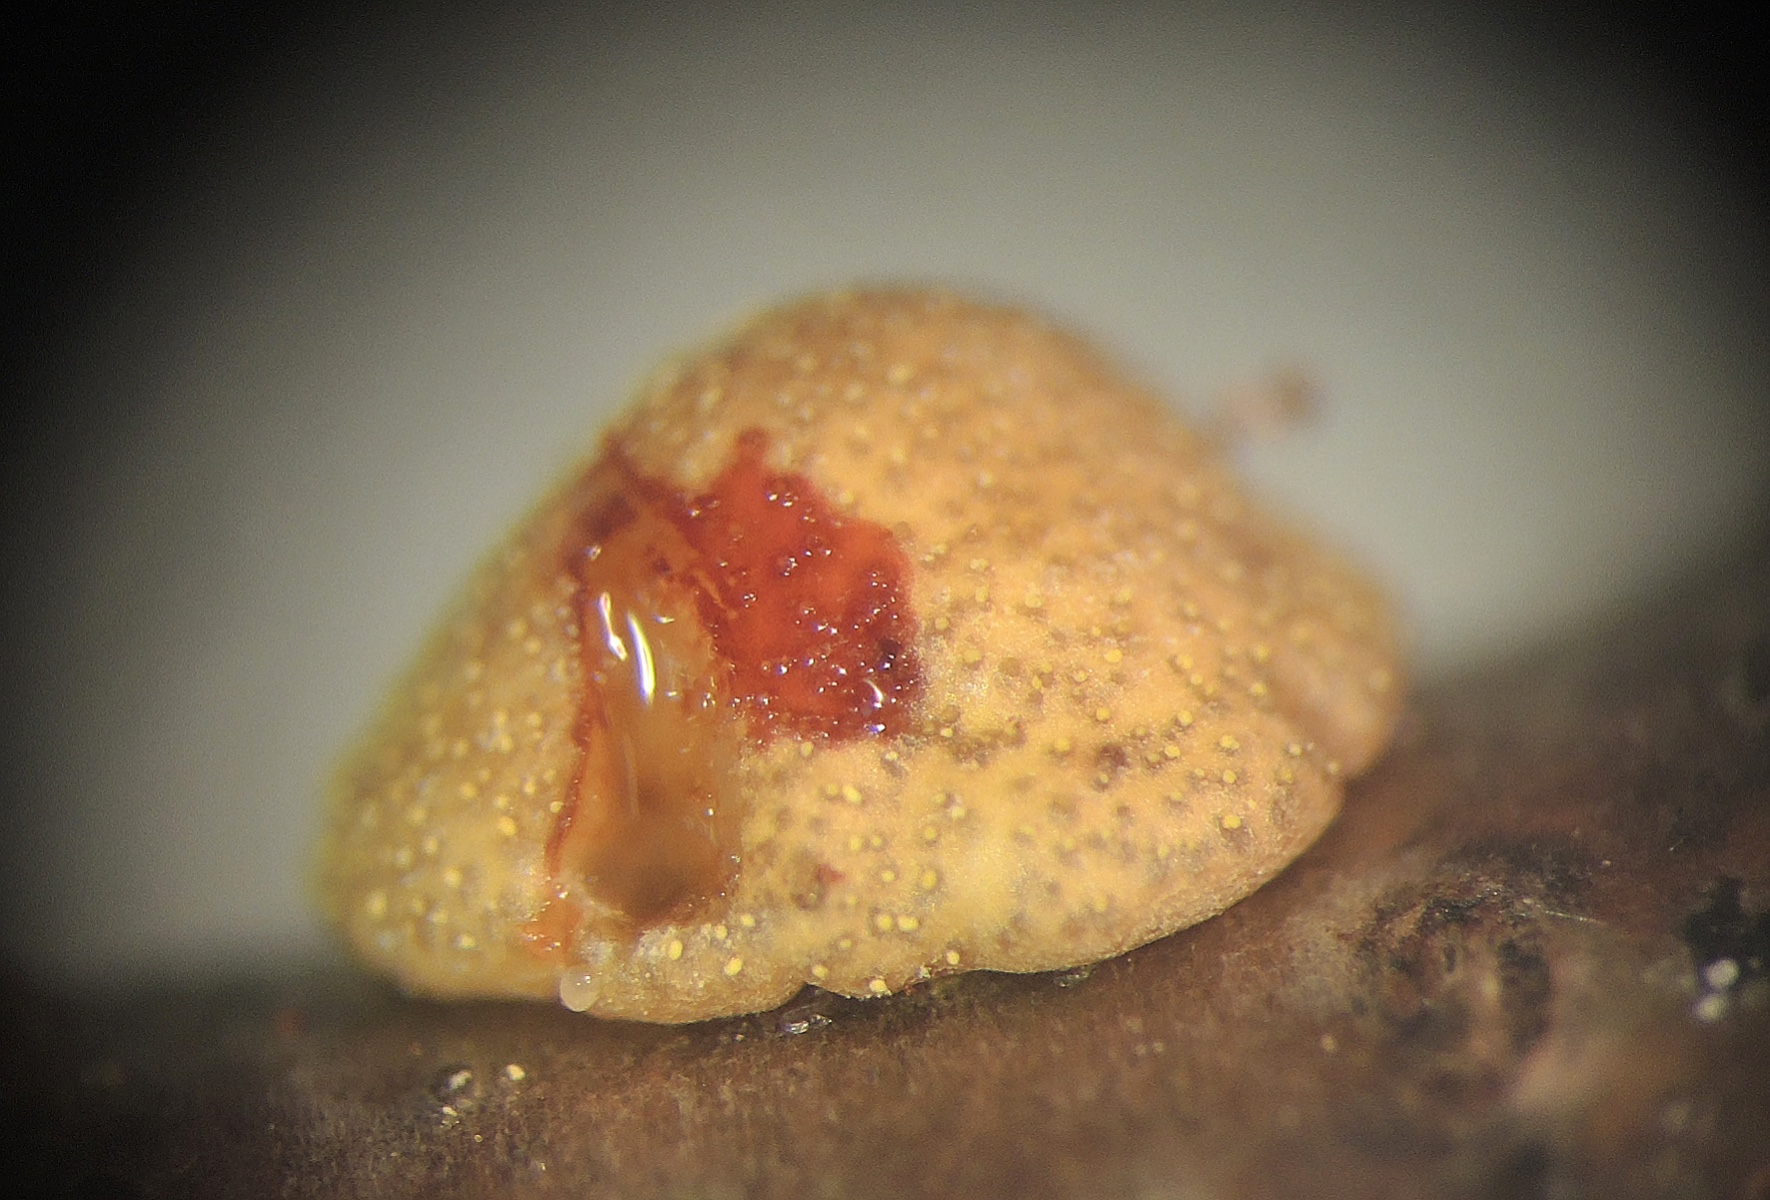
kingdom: Fungi
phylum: Ascomycota
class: Sordariomycetes
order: Hypocreales
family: Hypocreaceae
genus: Trichoderma
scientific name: Trichoderma bavaricum
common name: bayersk kødkerne
